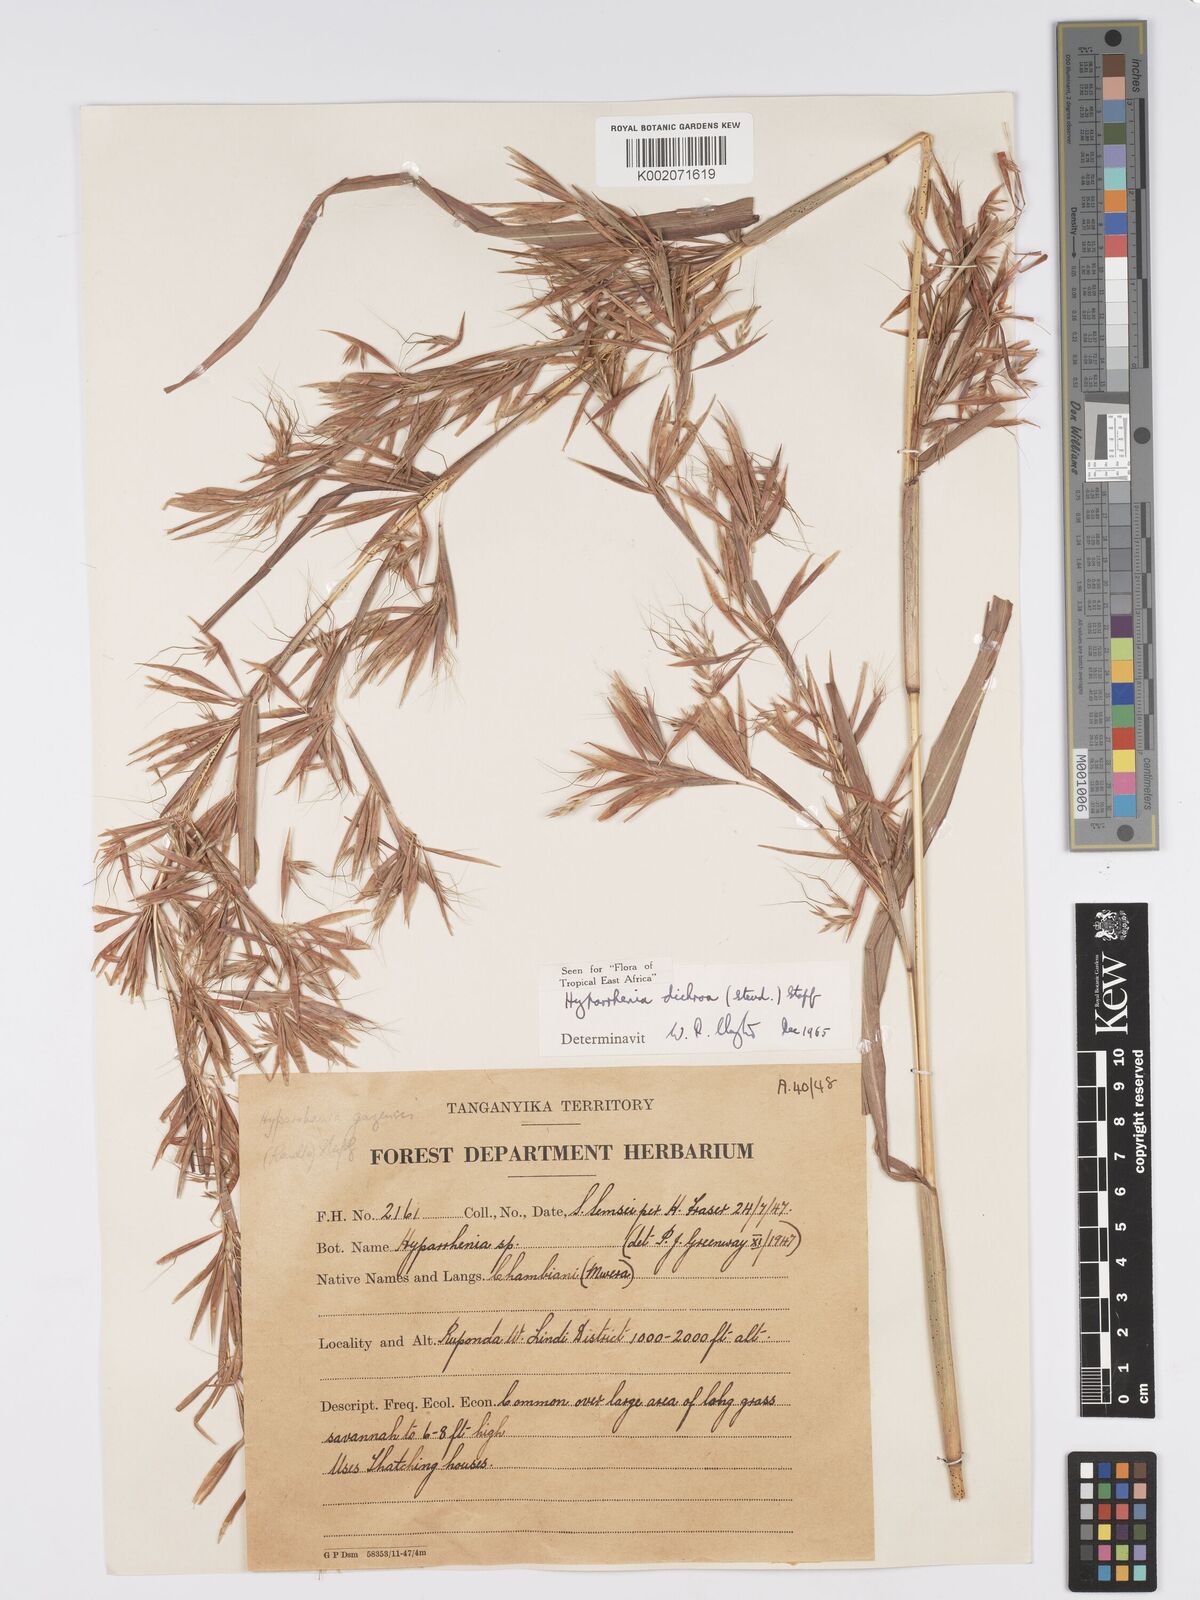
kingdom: Plantae
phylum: Tracheophyta
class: Liliopsida
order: Poales
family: Poaceae
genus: Hyparrhenia
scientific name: Hyparrhenia dichroa
